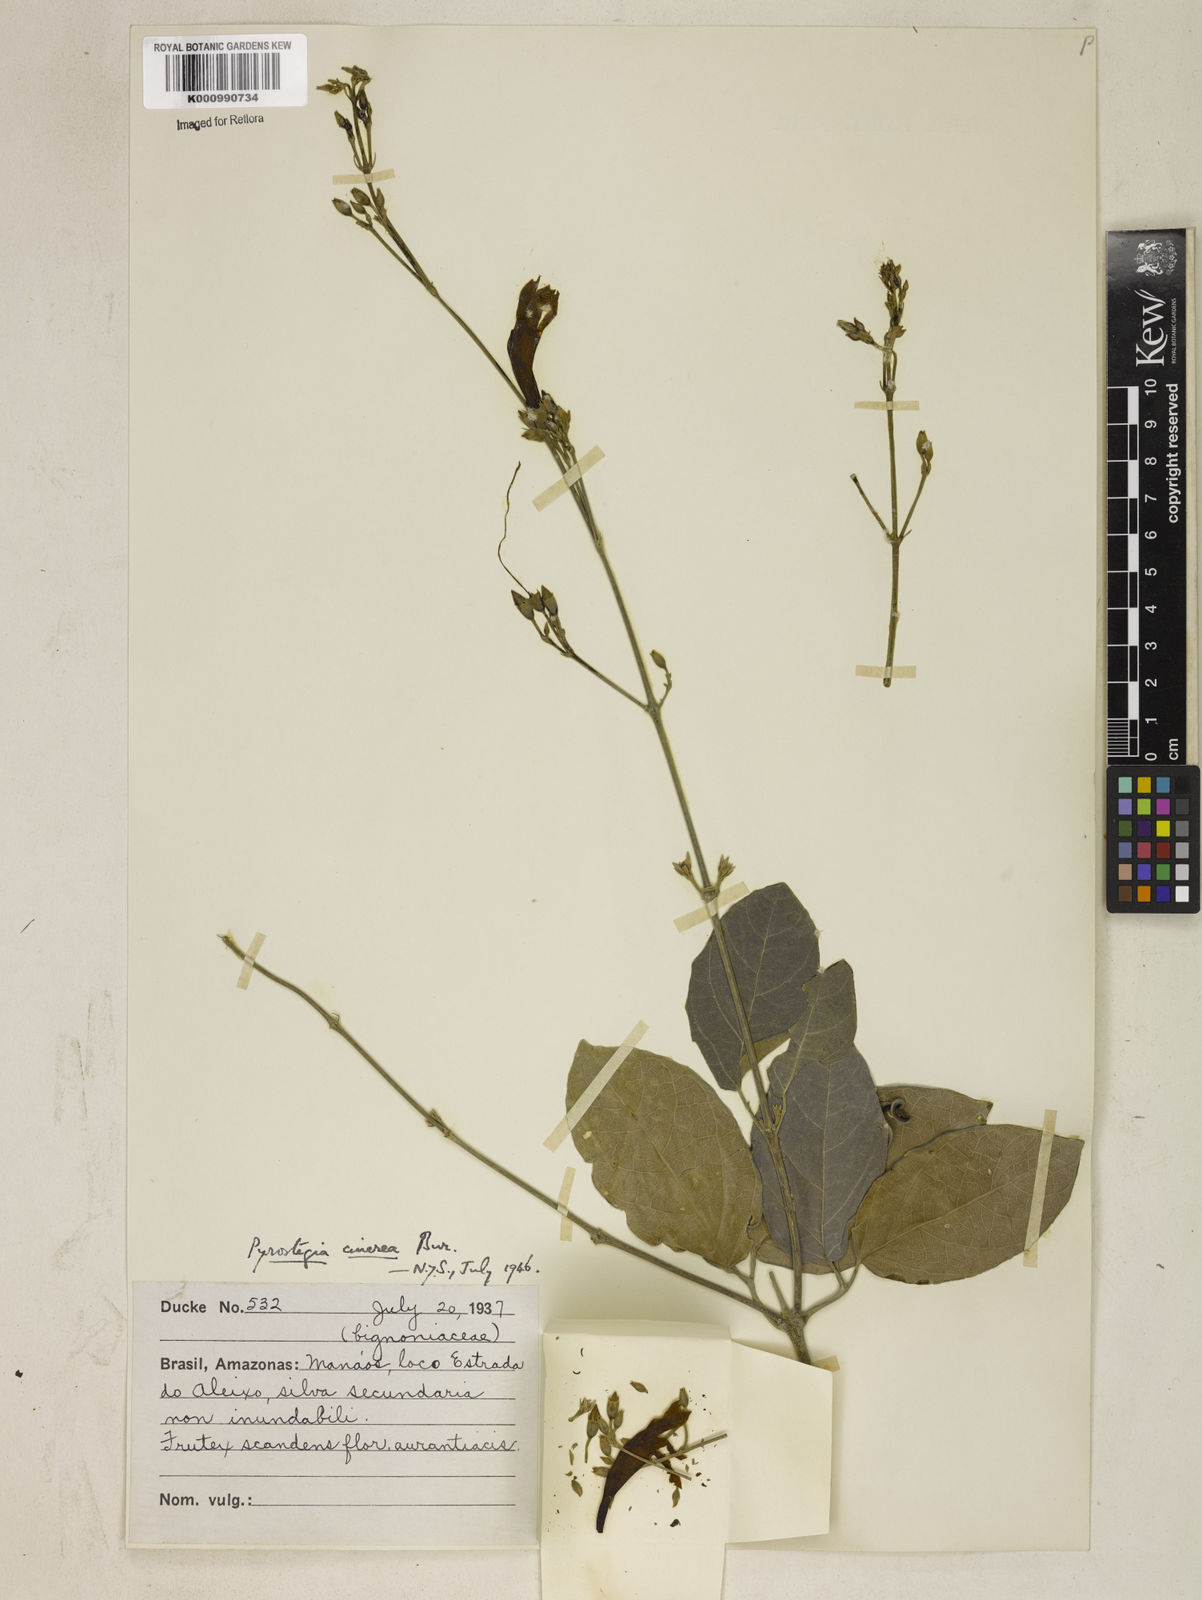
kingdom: Plantae
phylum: Tracheophyta
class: Magnoliopsida
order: Lamiales
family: Bignoniaceae
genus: Pyrostegia
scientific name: Pyrostegia
